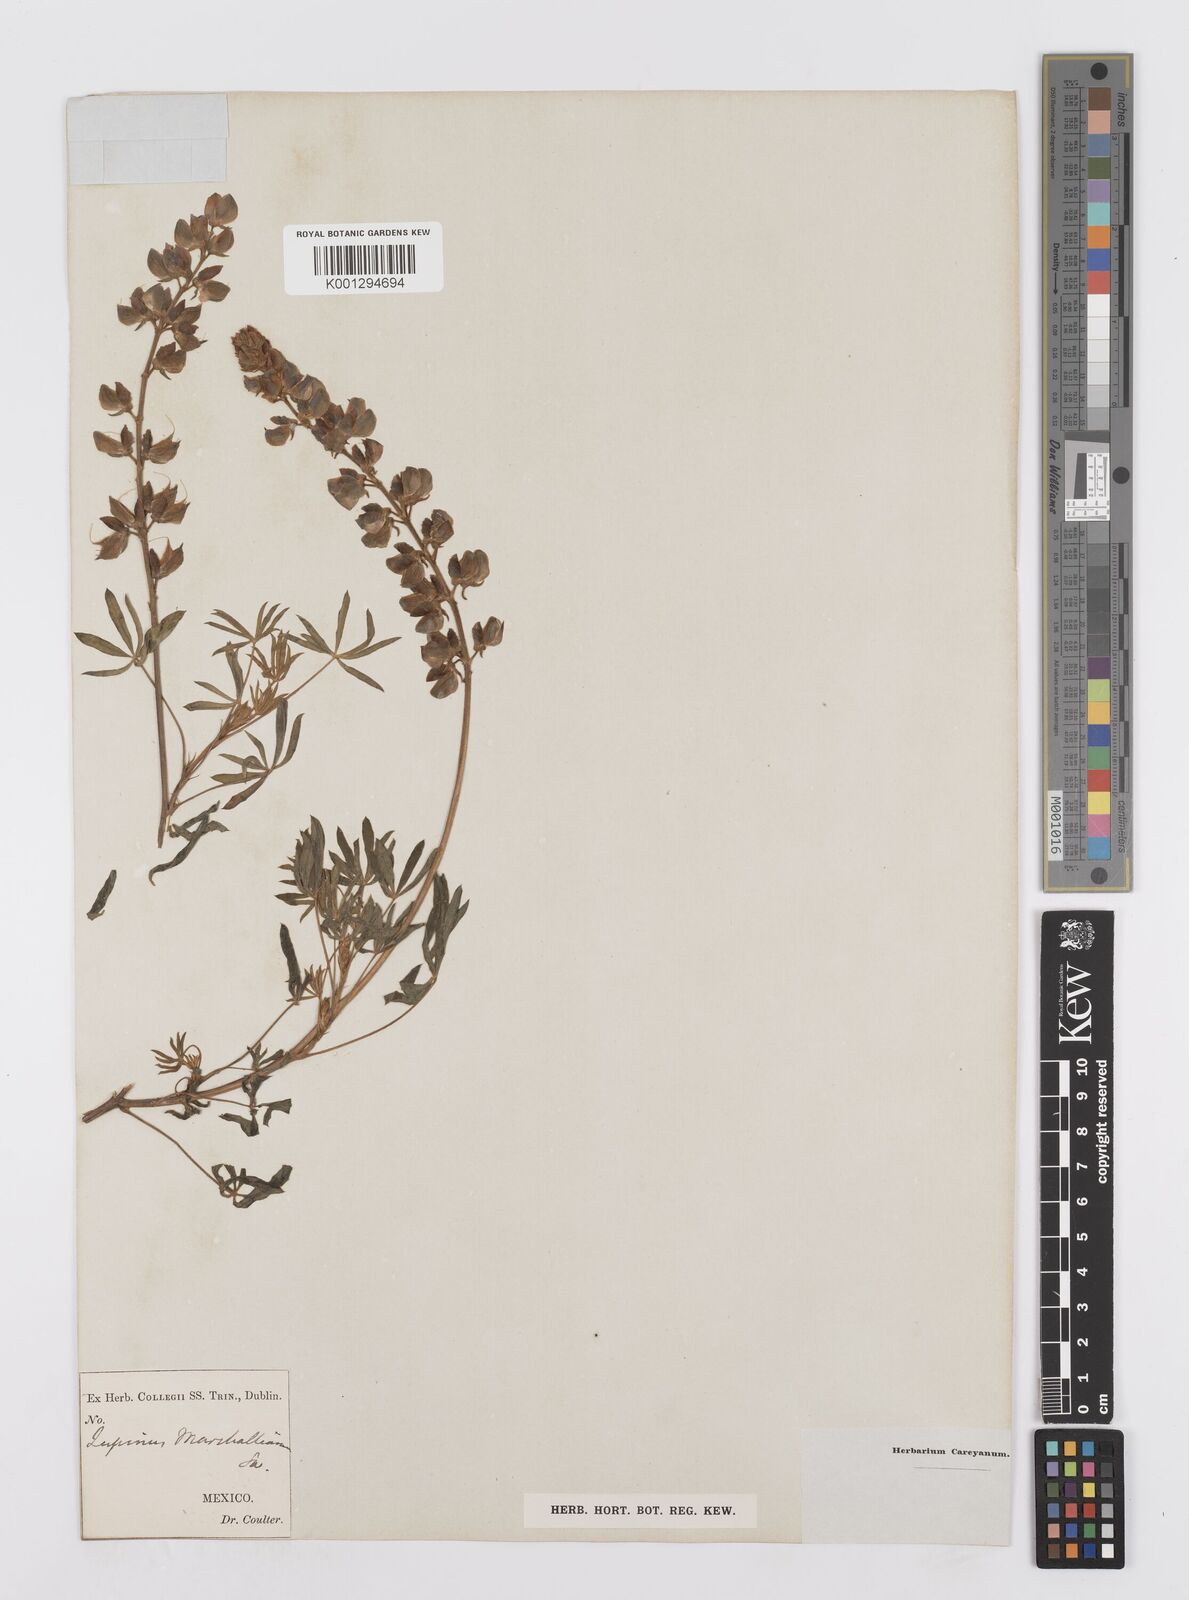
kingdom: Plantae
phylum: Tracheophyta
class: Magnoliopsida
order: Fabales
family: Fabaceae
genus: Lupinus
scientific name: Lupinus marschallianus
